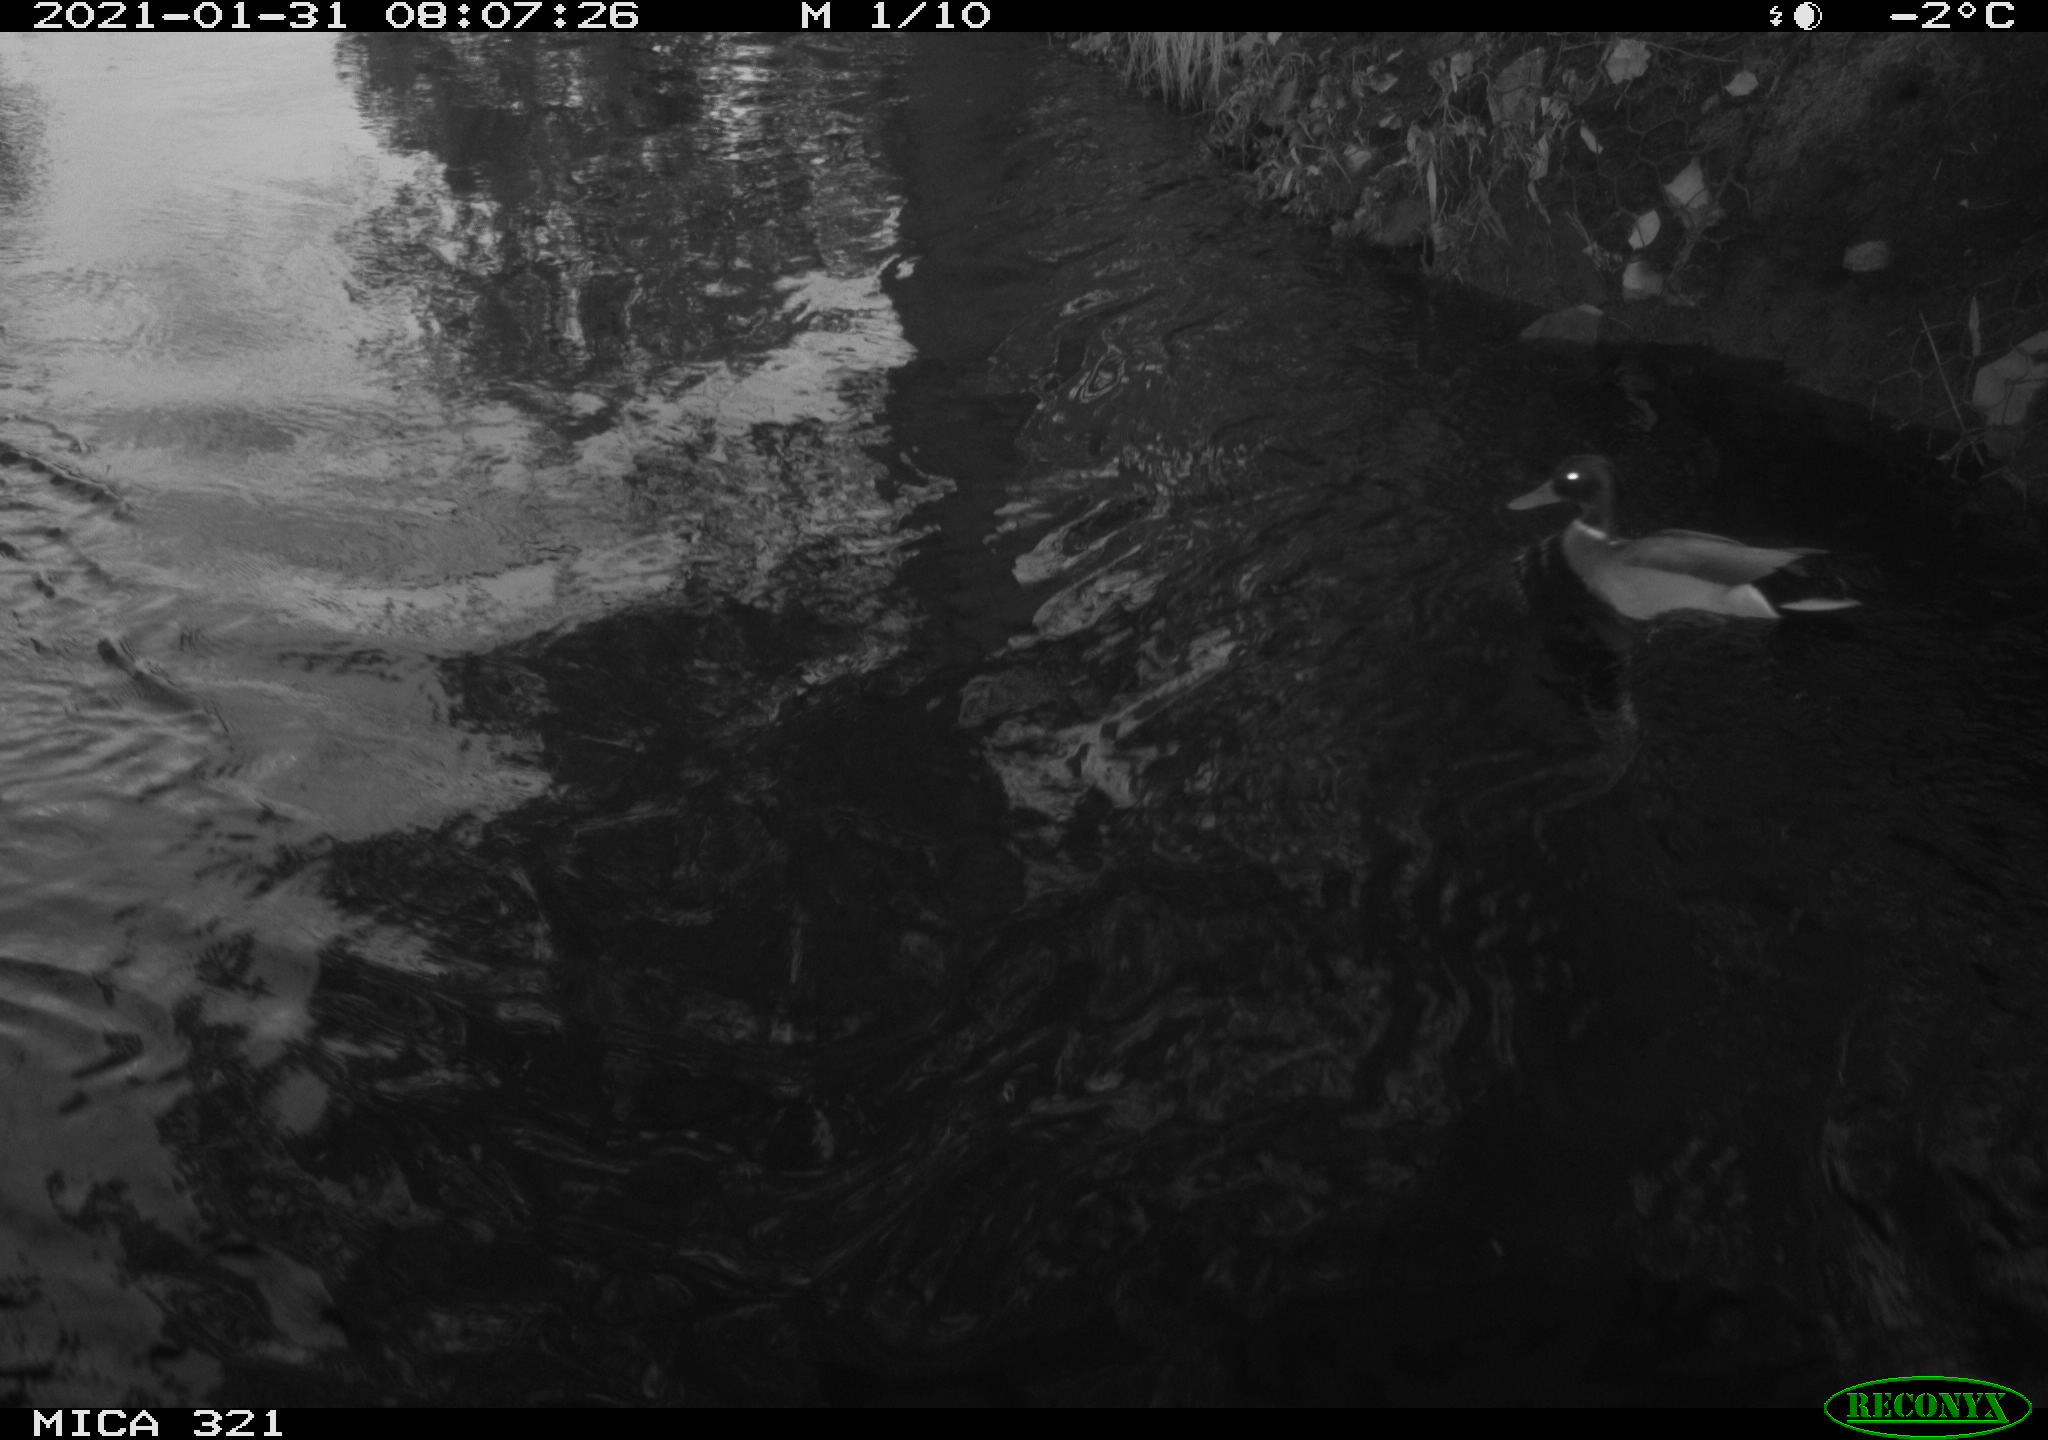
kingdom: Animalia
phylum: Chordata
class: Aves
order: Anseriformes
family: Anatidae
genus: Anas
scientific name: Anas platyrhynchos
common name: Mallard
